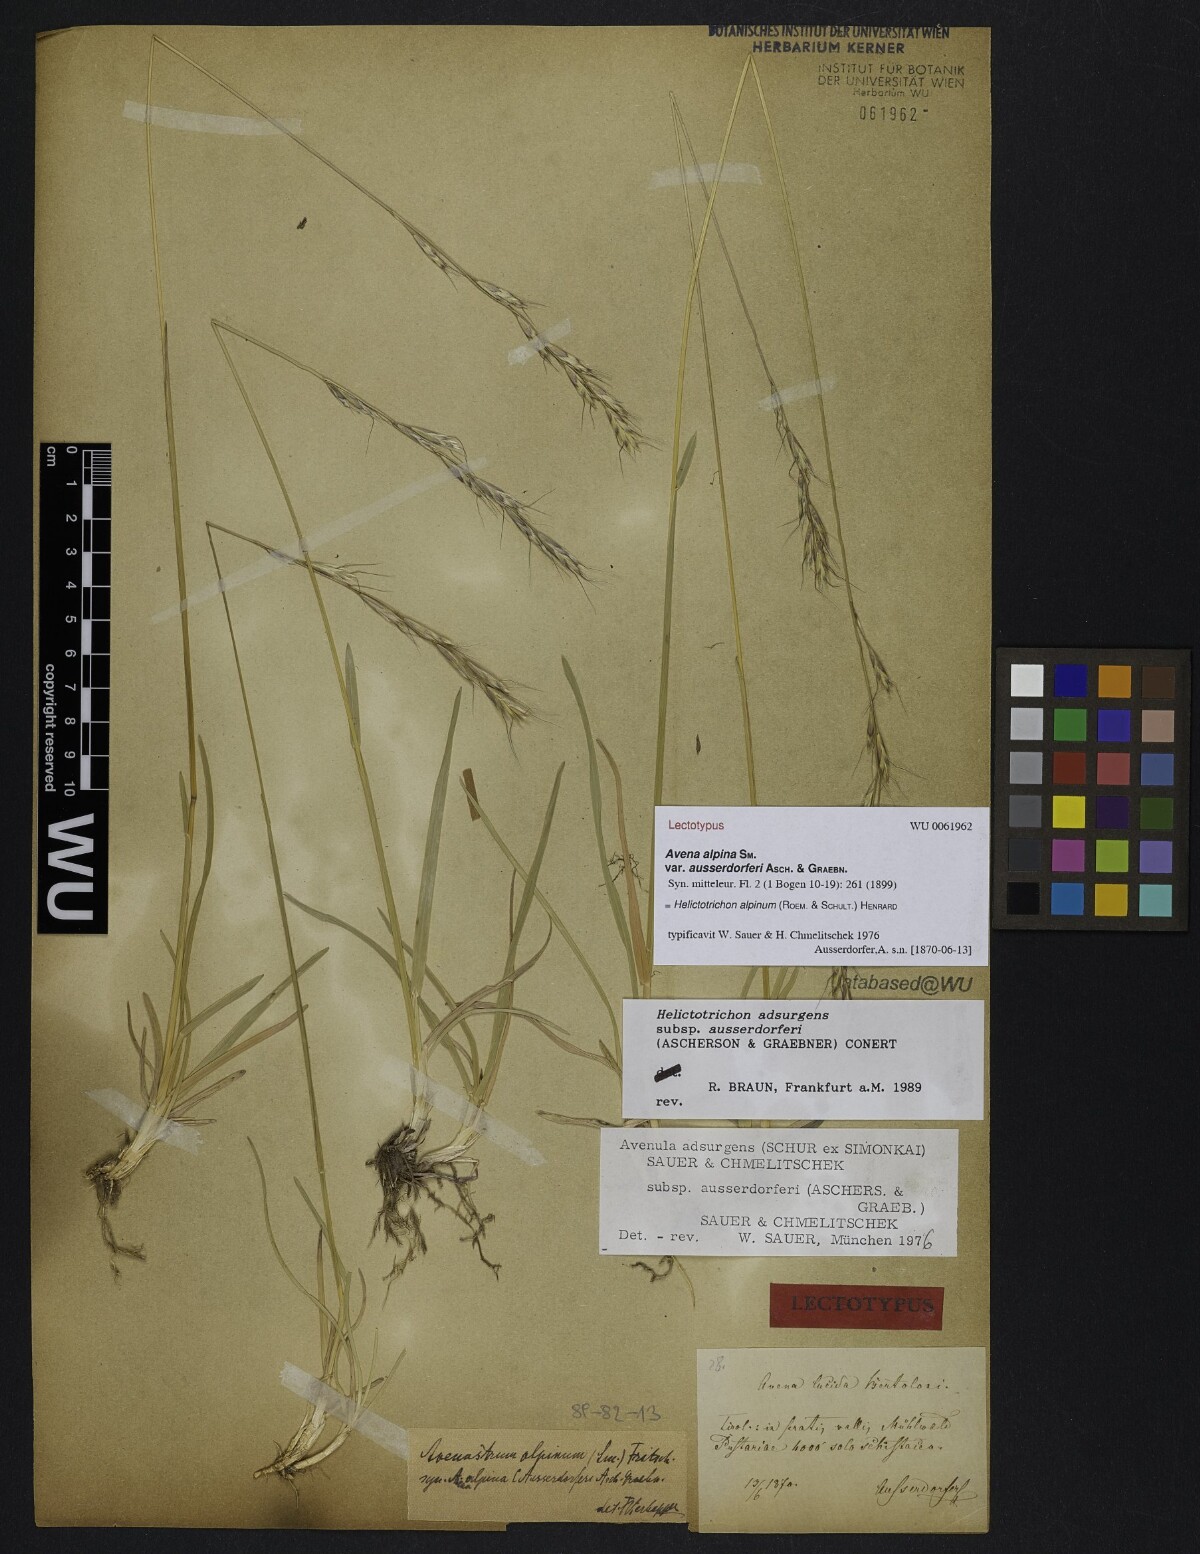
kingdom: Plantae
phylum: Tracheophyta
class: Liliopsida
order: Poales
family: Poaceae
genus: Helictochloa
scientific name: Helictochloa praeusta
